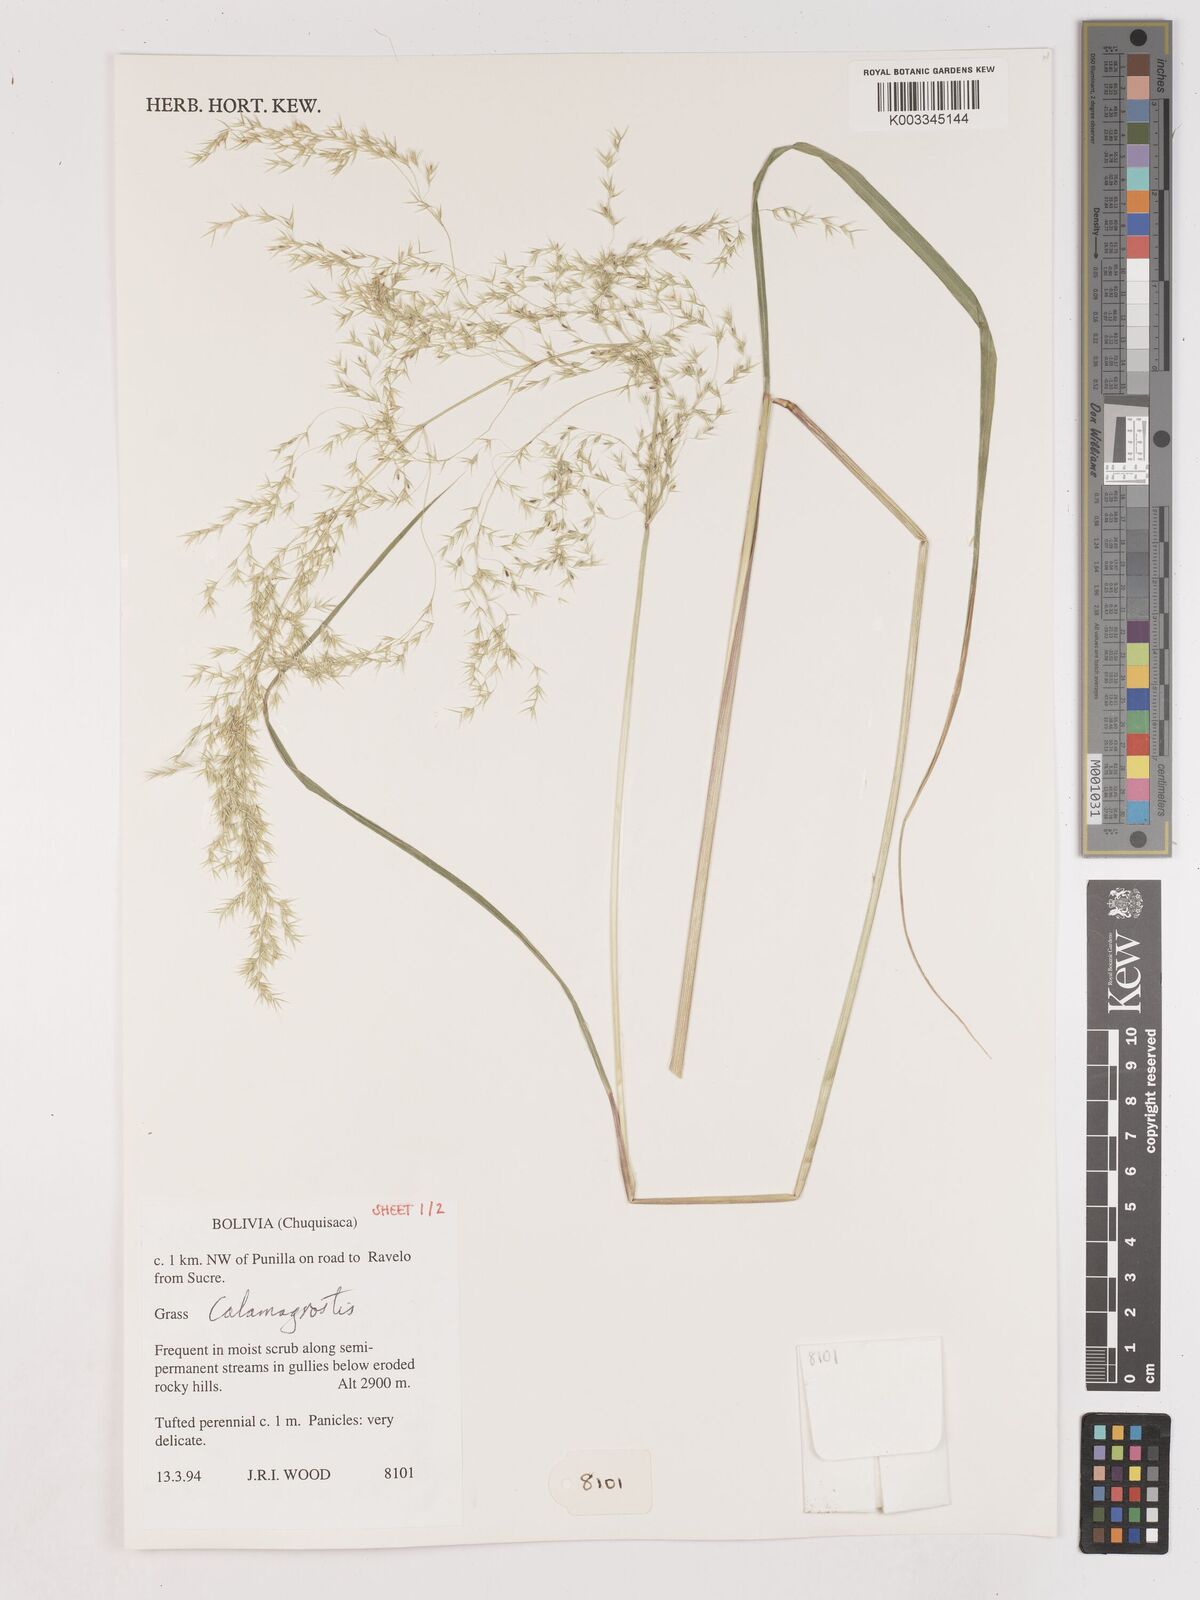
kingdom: Plantae
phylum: Tracheophyta
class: Liliopsida
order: Poales
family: Poaceae
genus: Calamagrostis
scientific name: Calamagrostis
